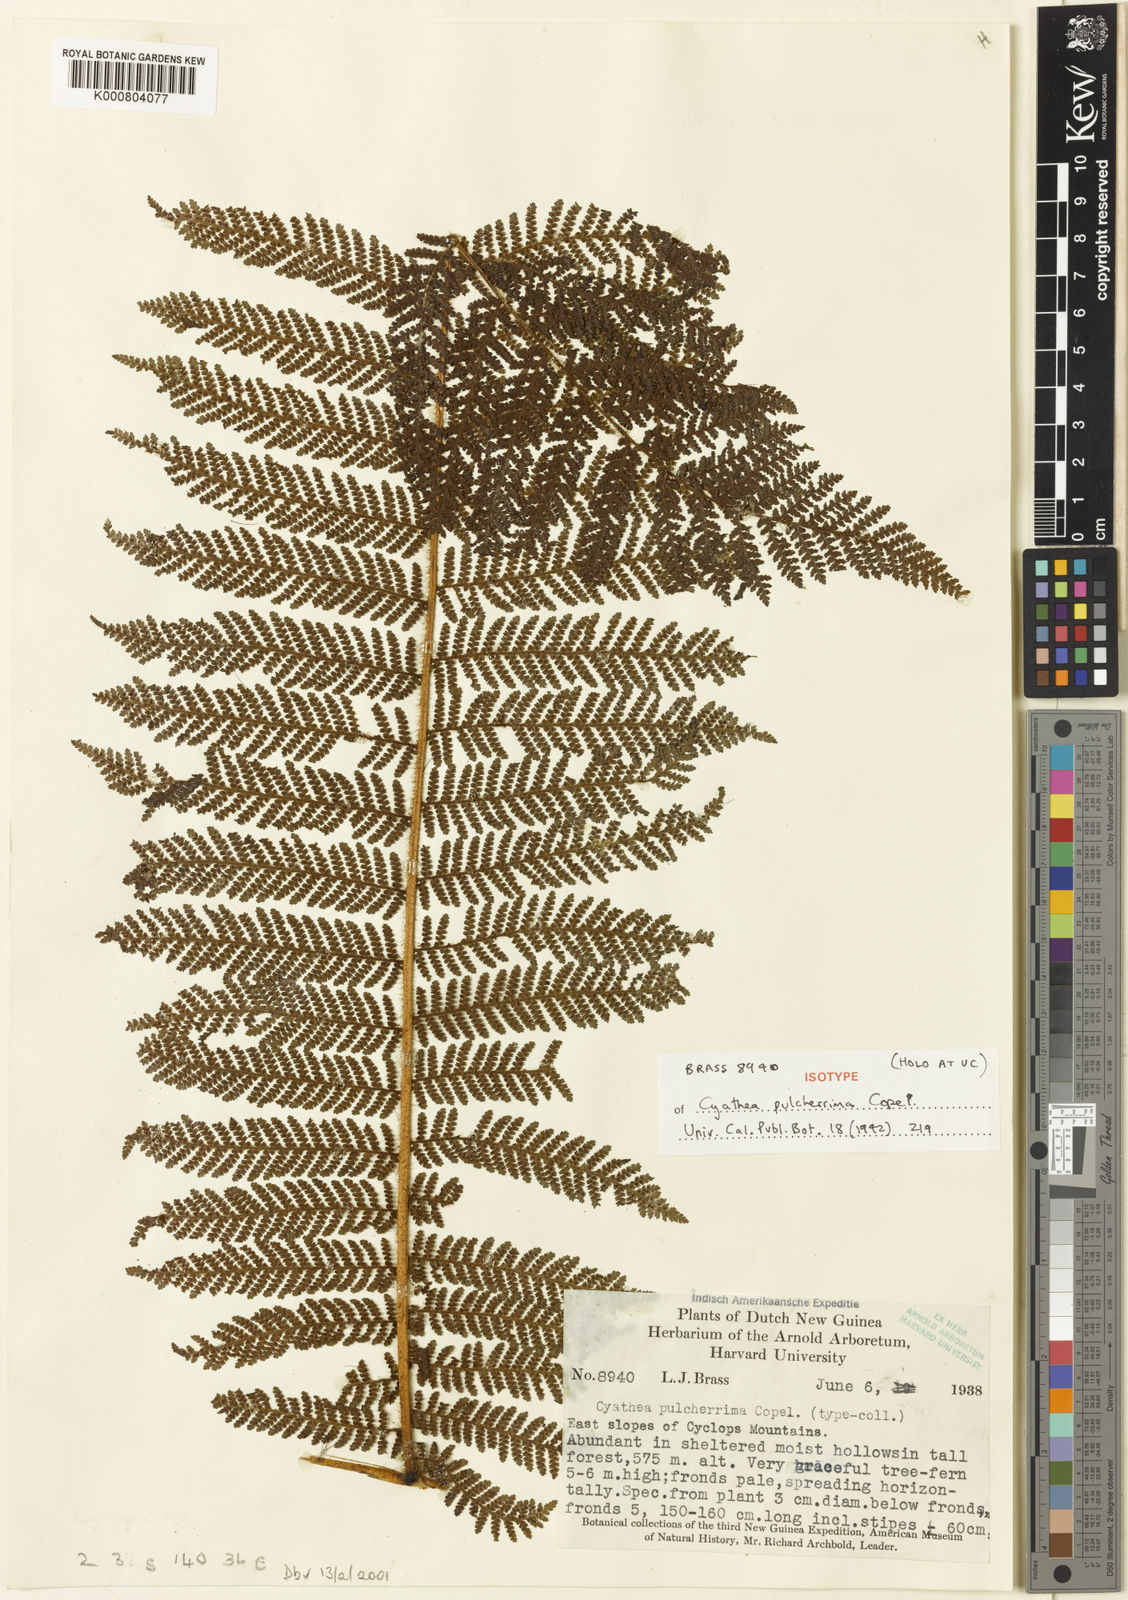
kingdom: Plantae
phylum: Tracheophyta
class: Polypodiopsida
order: Cyatheales
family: Cyatheaceae
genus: Sphaeropteris
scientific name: Sphaeropteris pulcherrima
